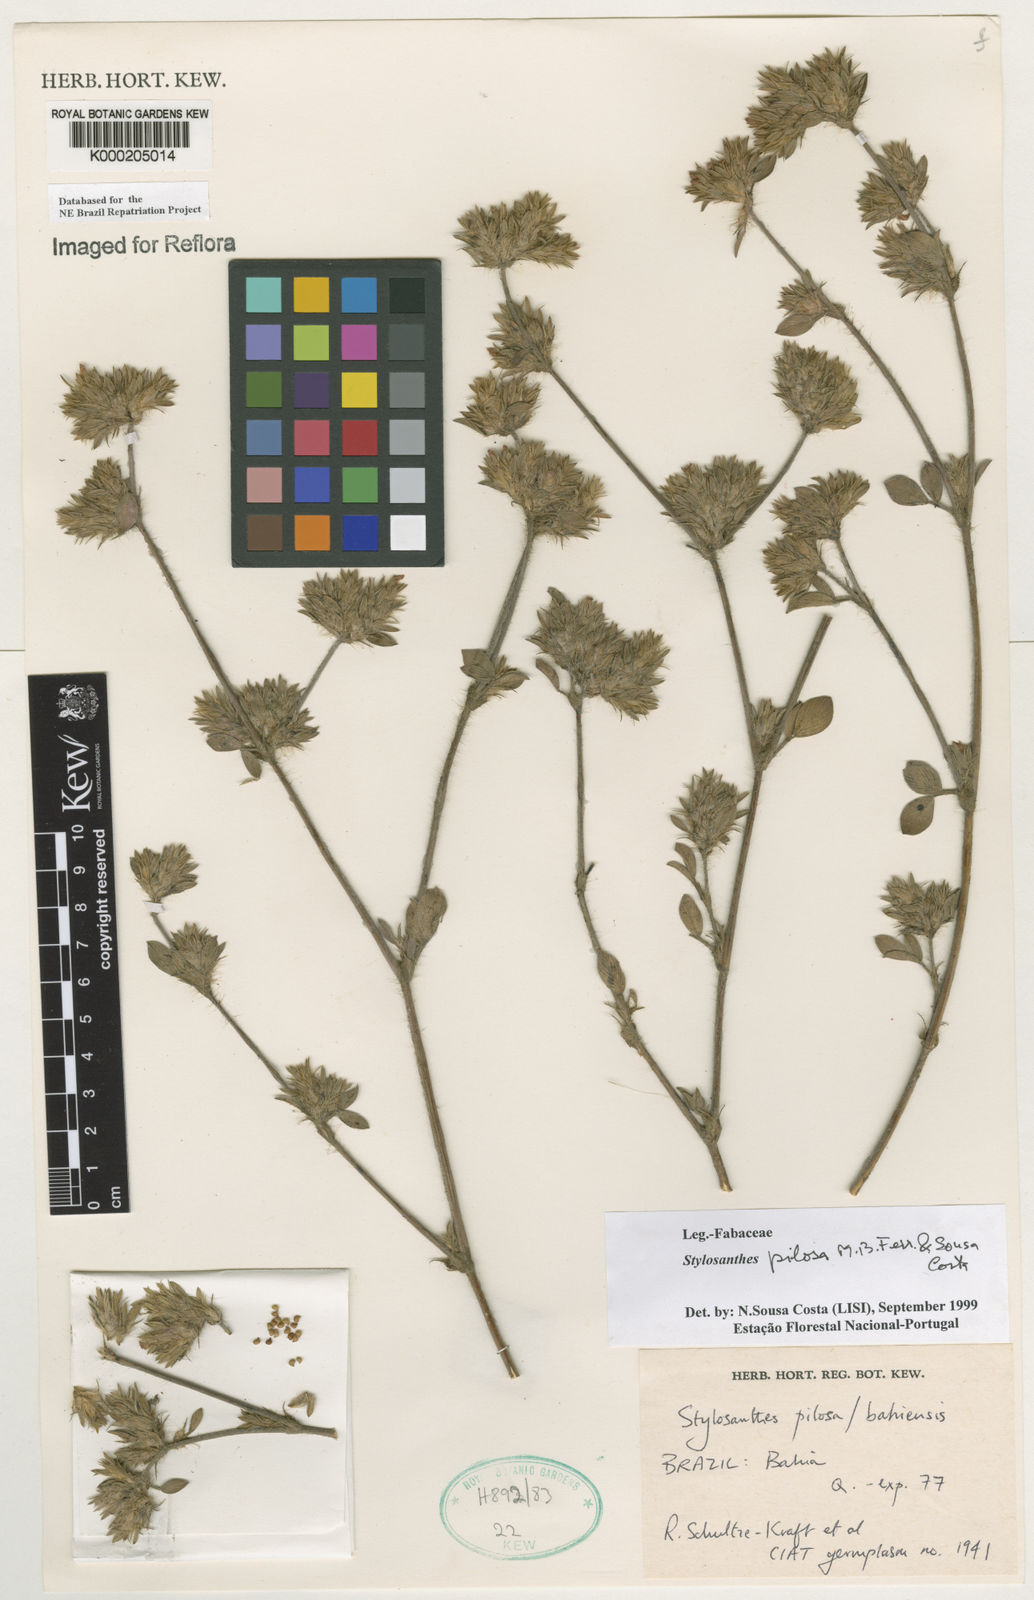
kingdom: Plantae
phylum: Tracheophyta
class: Magnoliopsida
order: Fabales
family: Fabaceae
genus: Stylosanthes
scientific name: Stylosanthes viscosa
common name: Viscid pencil-flower
